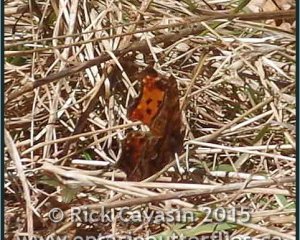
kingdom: Animalia
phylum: Arthropoda
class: Insecta
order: Lepidoptera
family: Nymphalidae
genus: Polygonia
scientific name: Polygonia comma
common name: Eastern Comma
